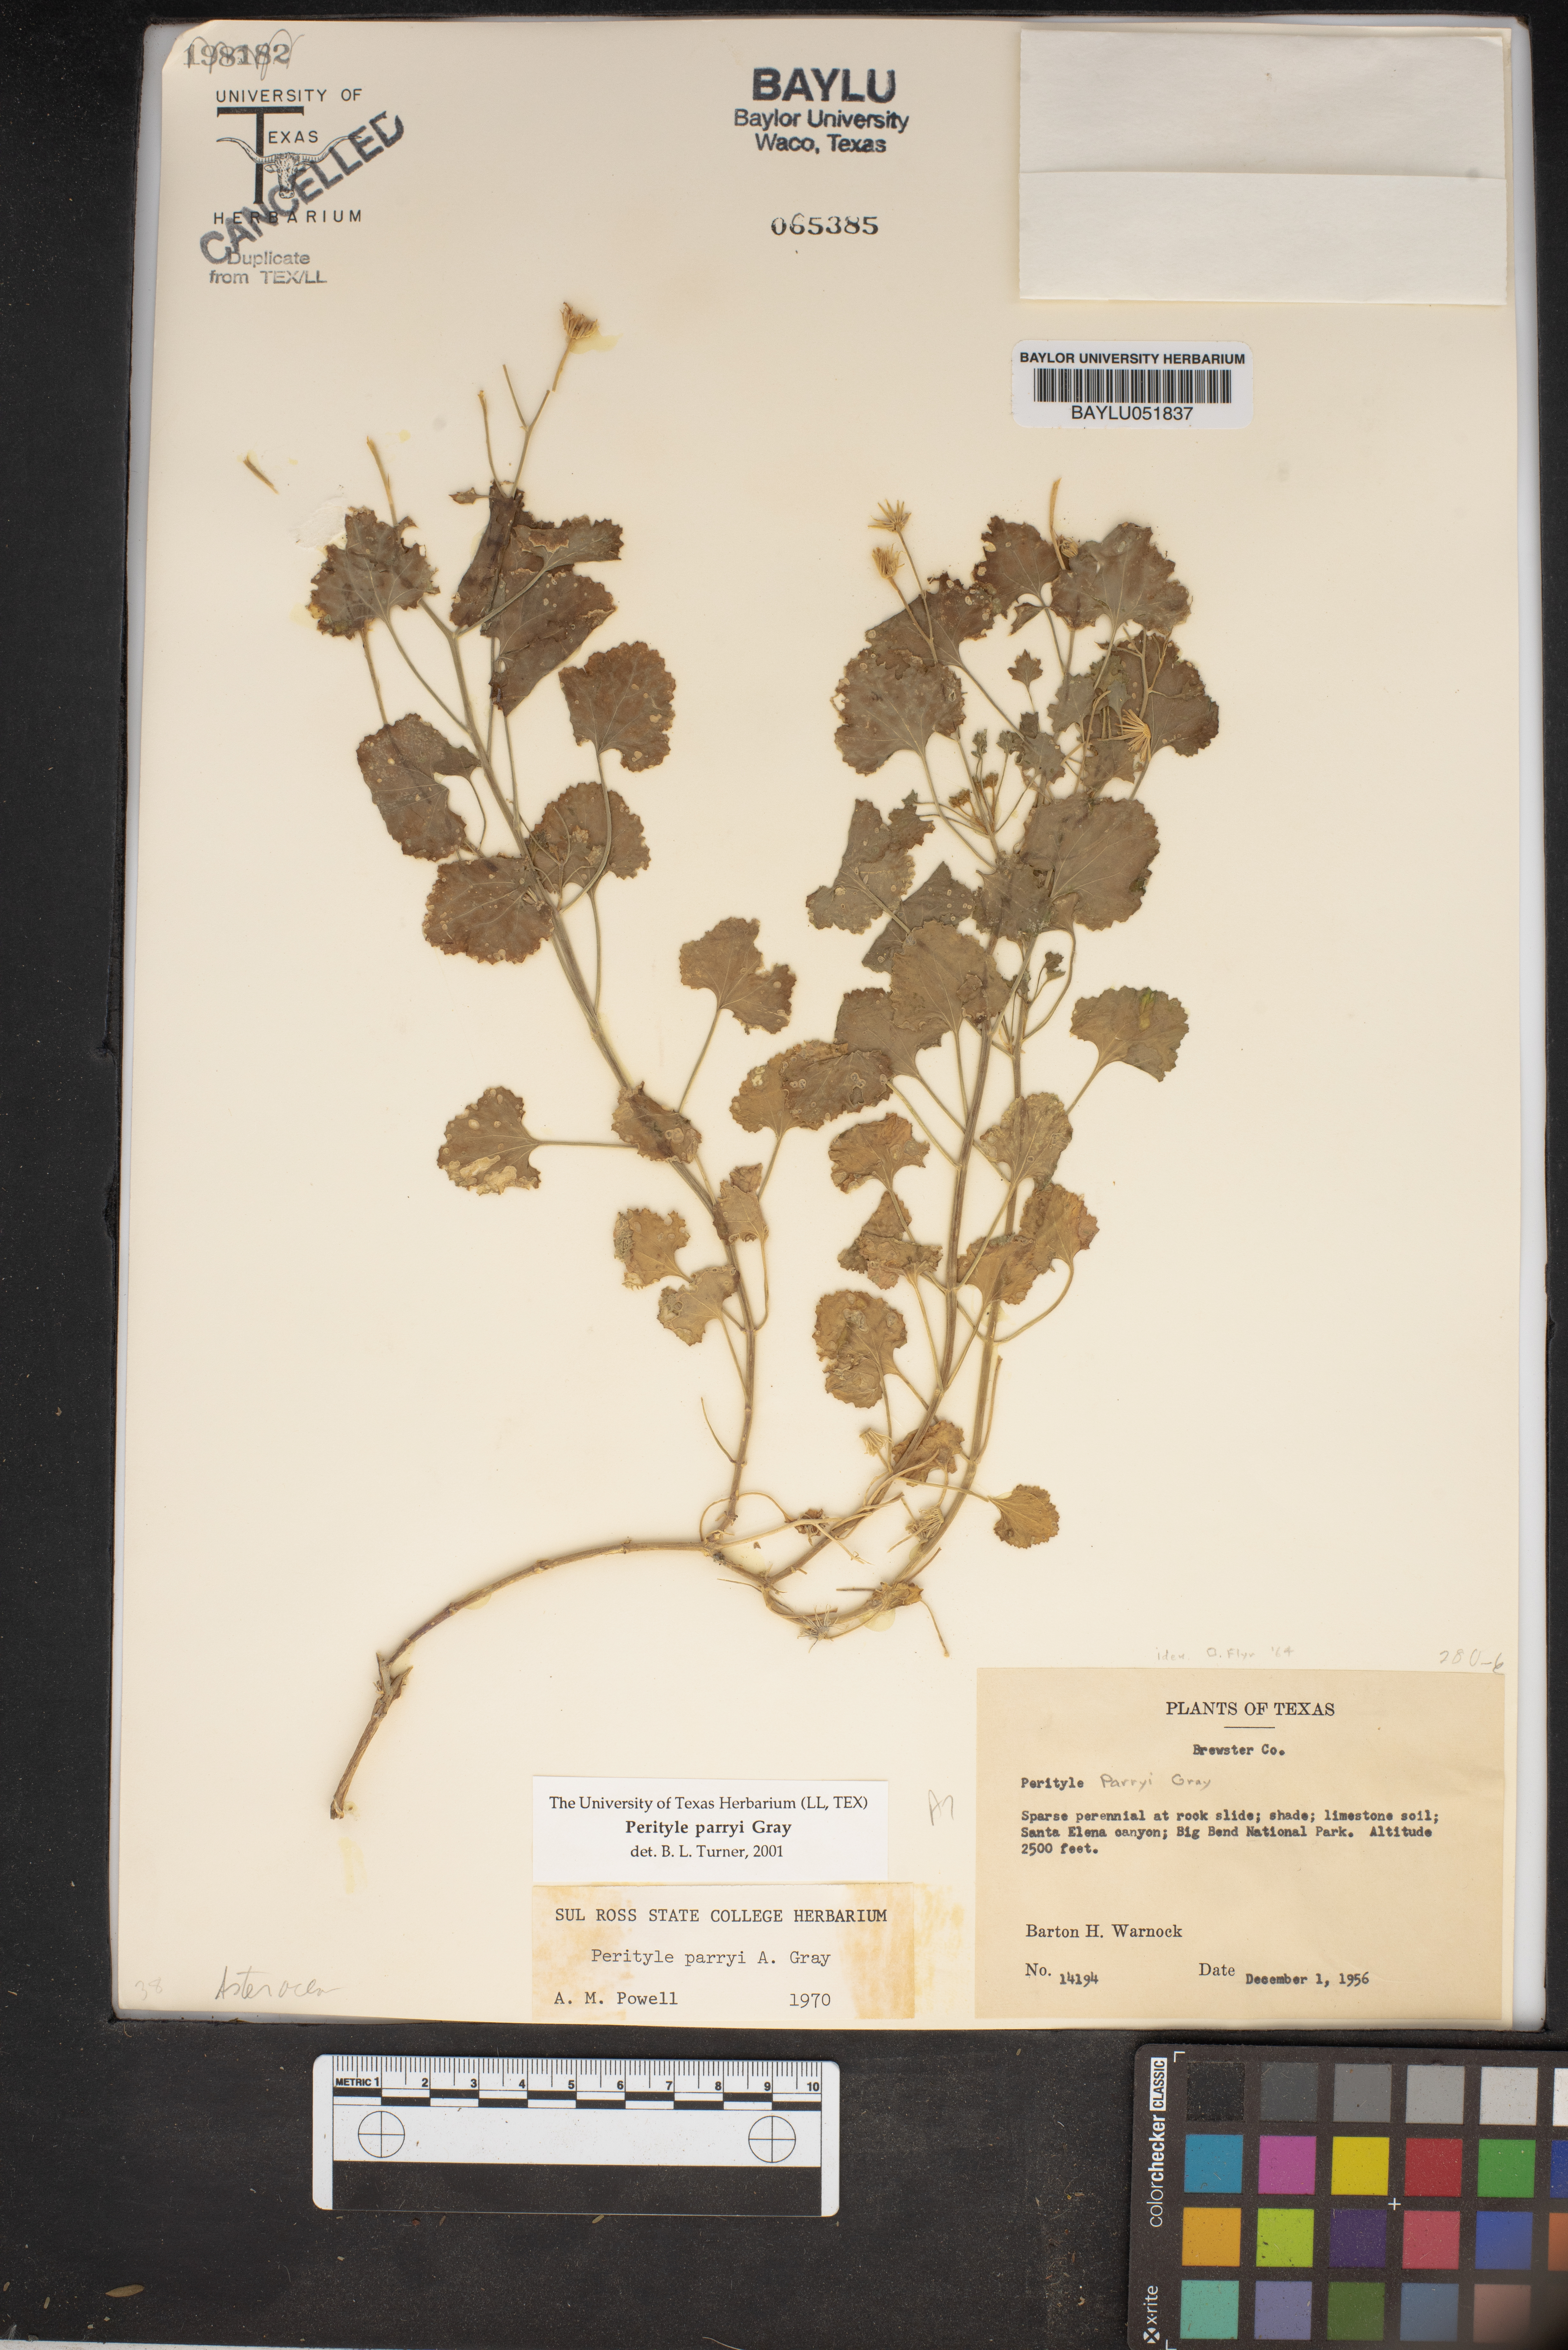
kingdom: Plantae
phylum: Tracheophyta
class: Magnoliopsida
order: Asterales
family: Asteraceae
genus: Laphamia
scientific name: Laphamia parryi
